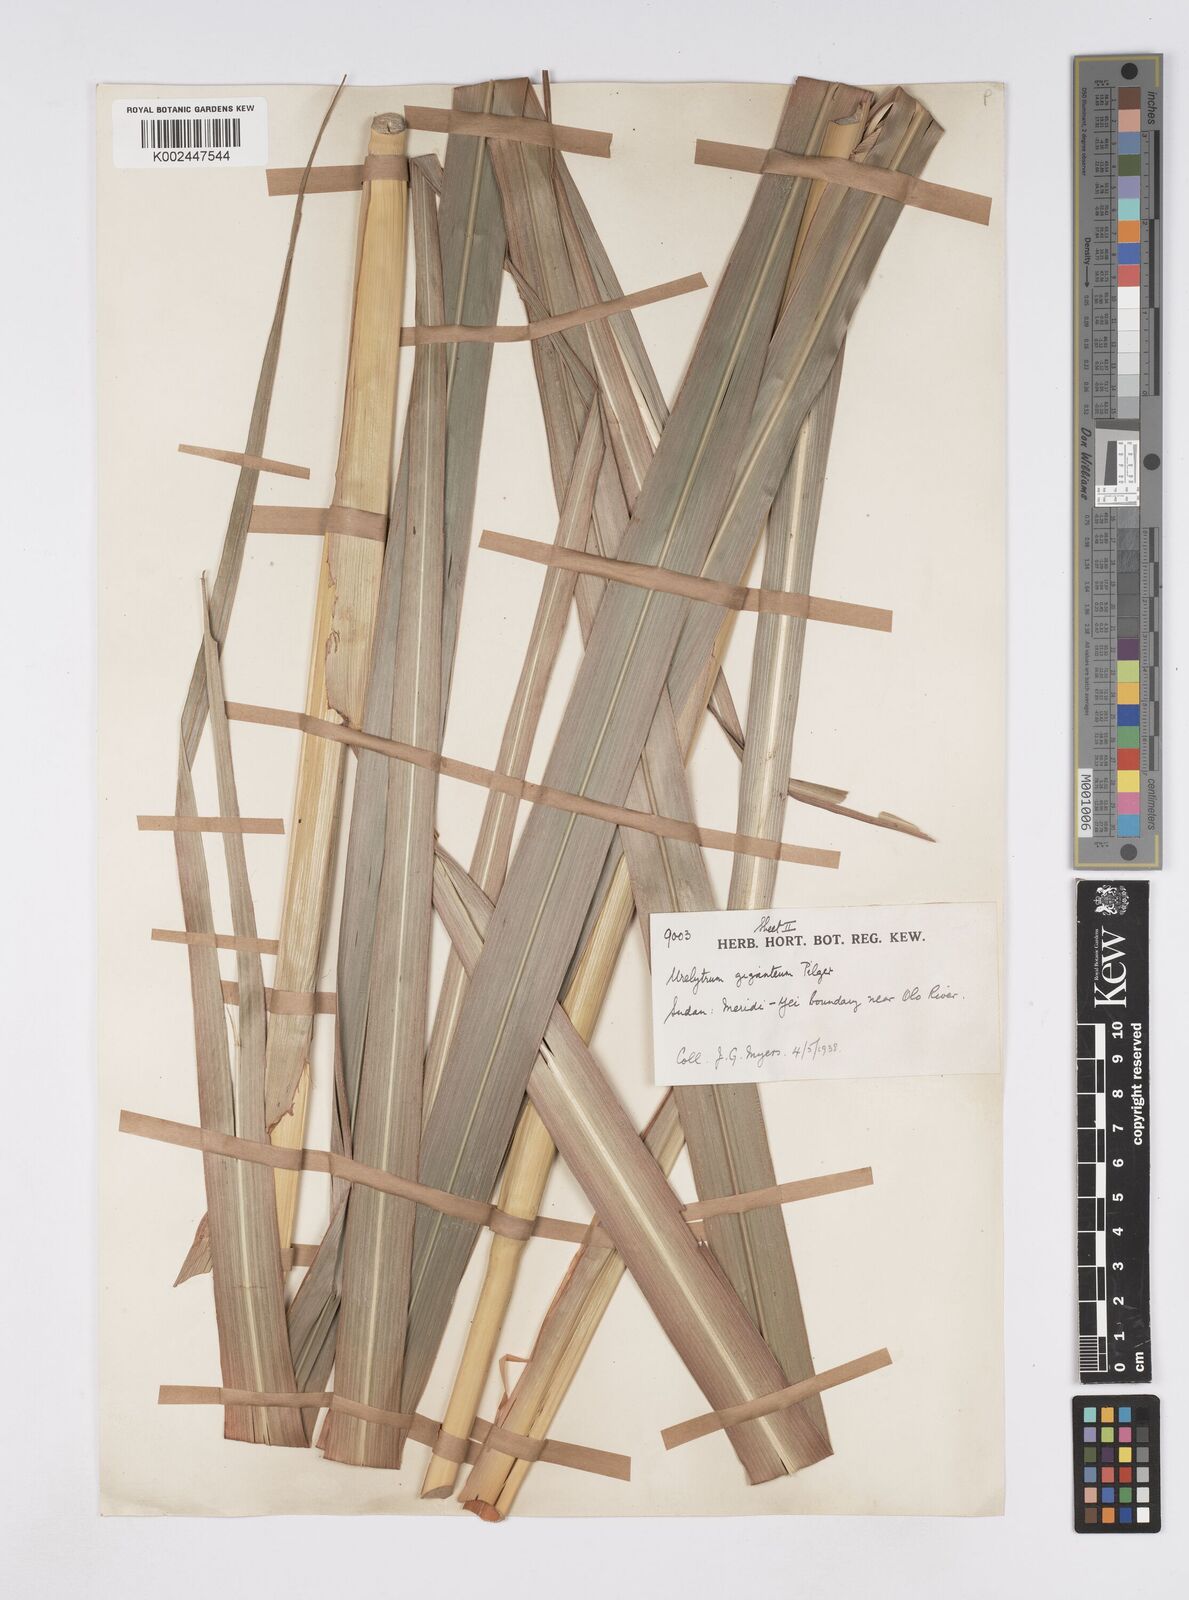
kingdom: Plantae
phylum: Tracheophyta
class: Liliopsida
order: Poales
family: Poaceae
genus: Urelytrum
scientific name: Urelytrum giganteum
